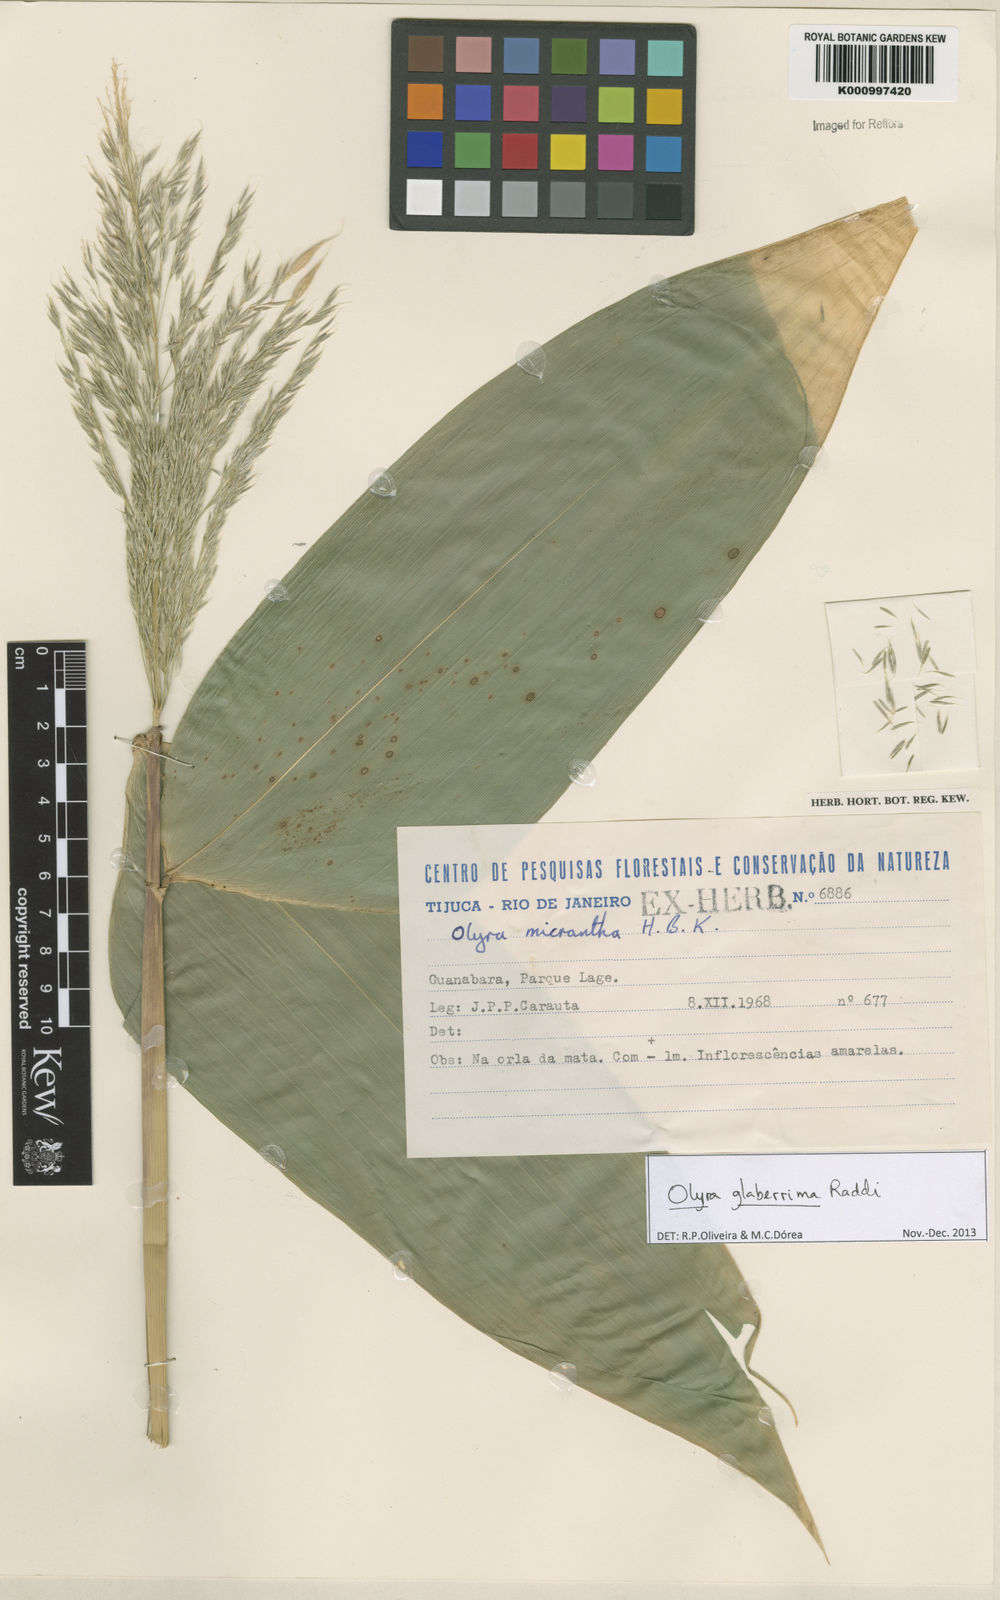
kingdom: Plantae
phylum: Tracheophyta
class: Liliopsida
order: Poales
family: Poaceae
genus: Olyra
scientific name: Olyra glaberrima
